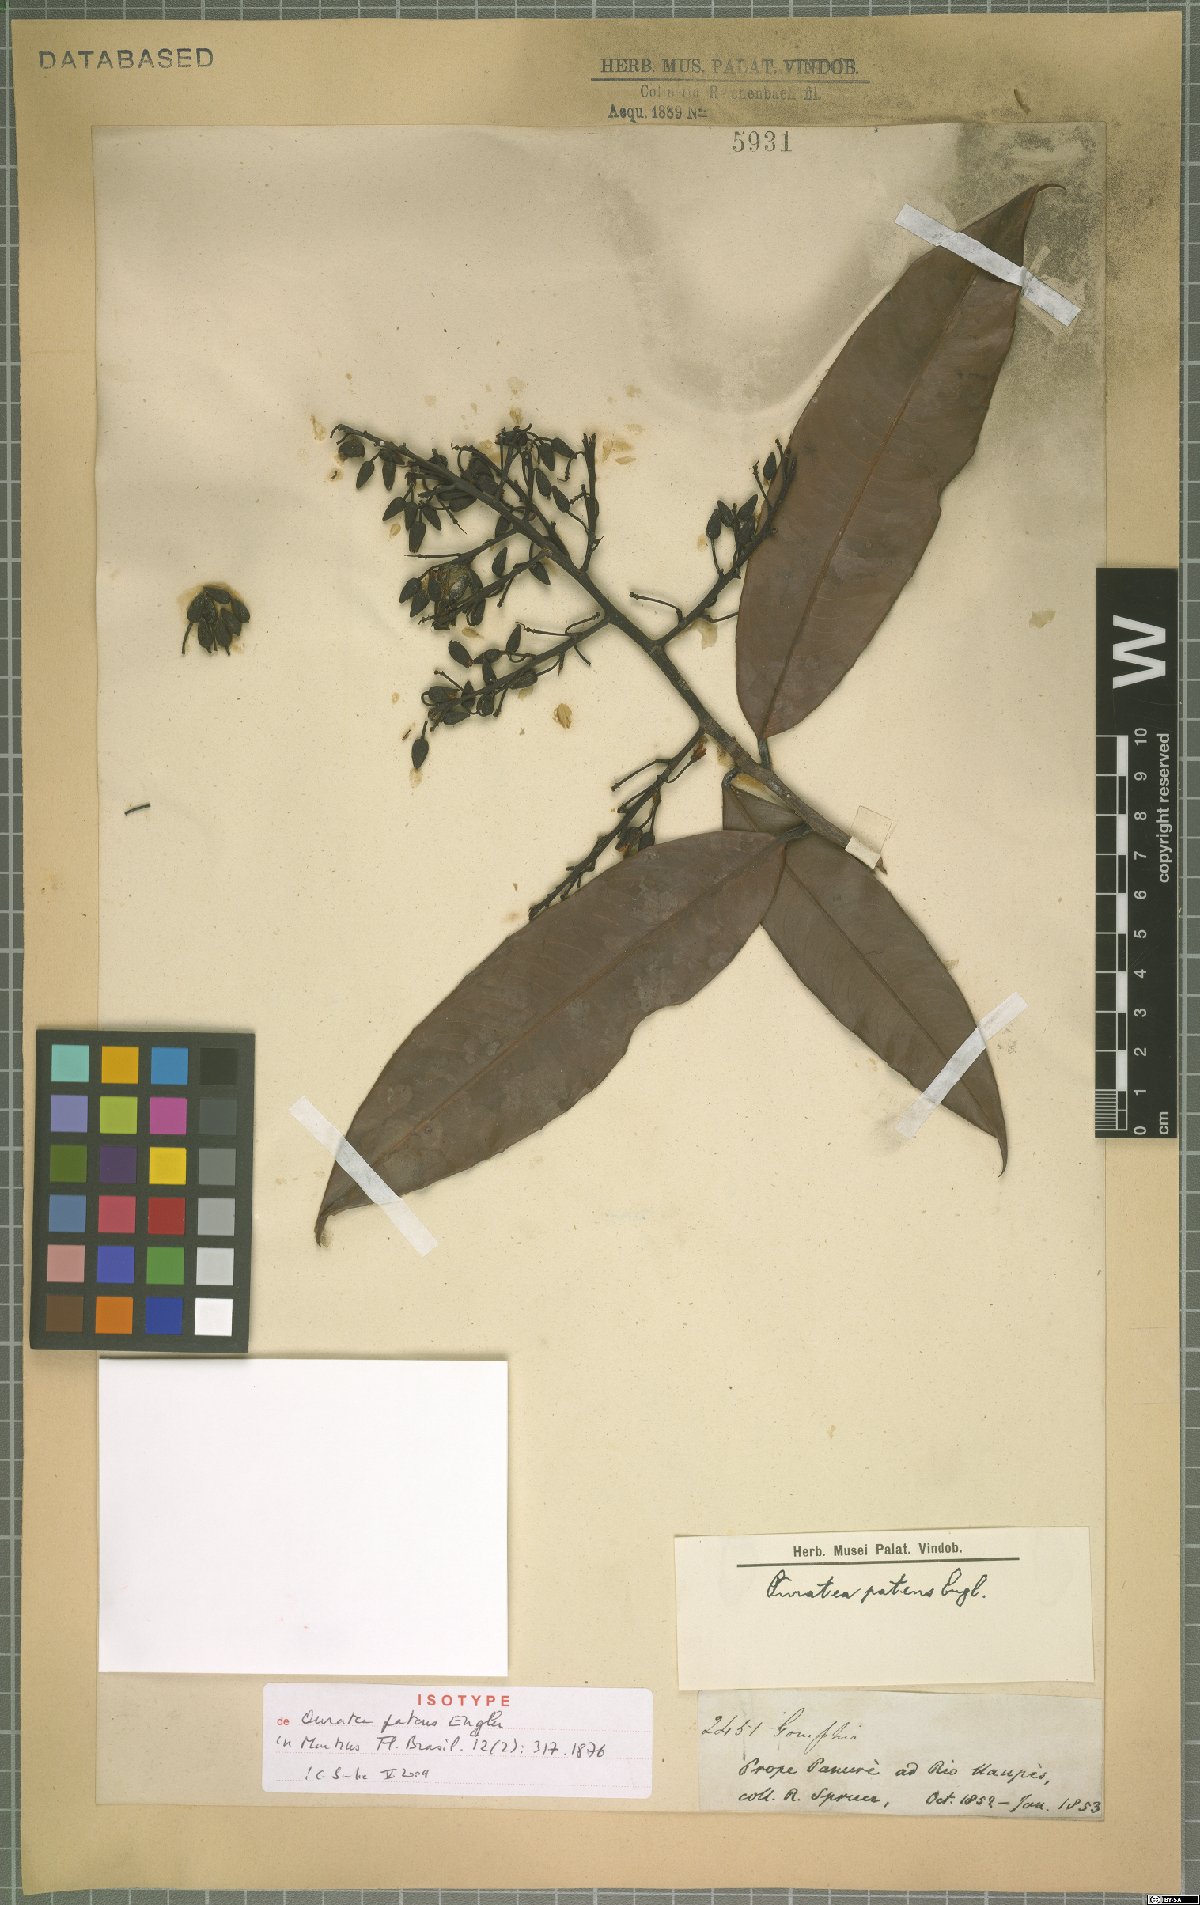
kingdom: Plantae
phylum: Tracheophyta
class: Magnoliopsida
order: Malpighiales
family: Ochnaceae
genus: Ouratea
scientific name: Ouratea patens
